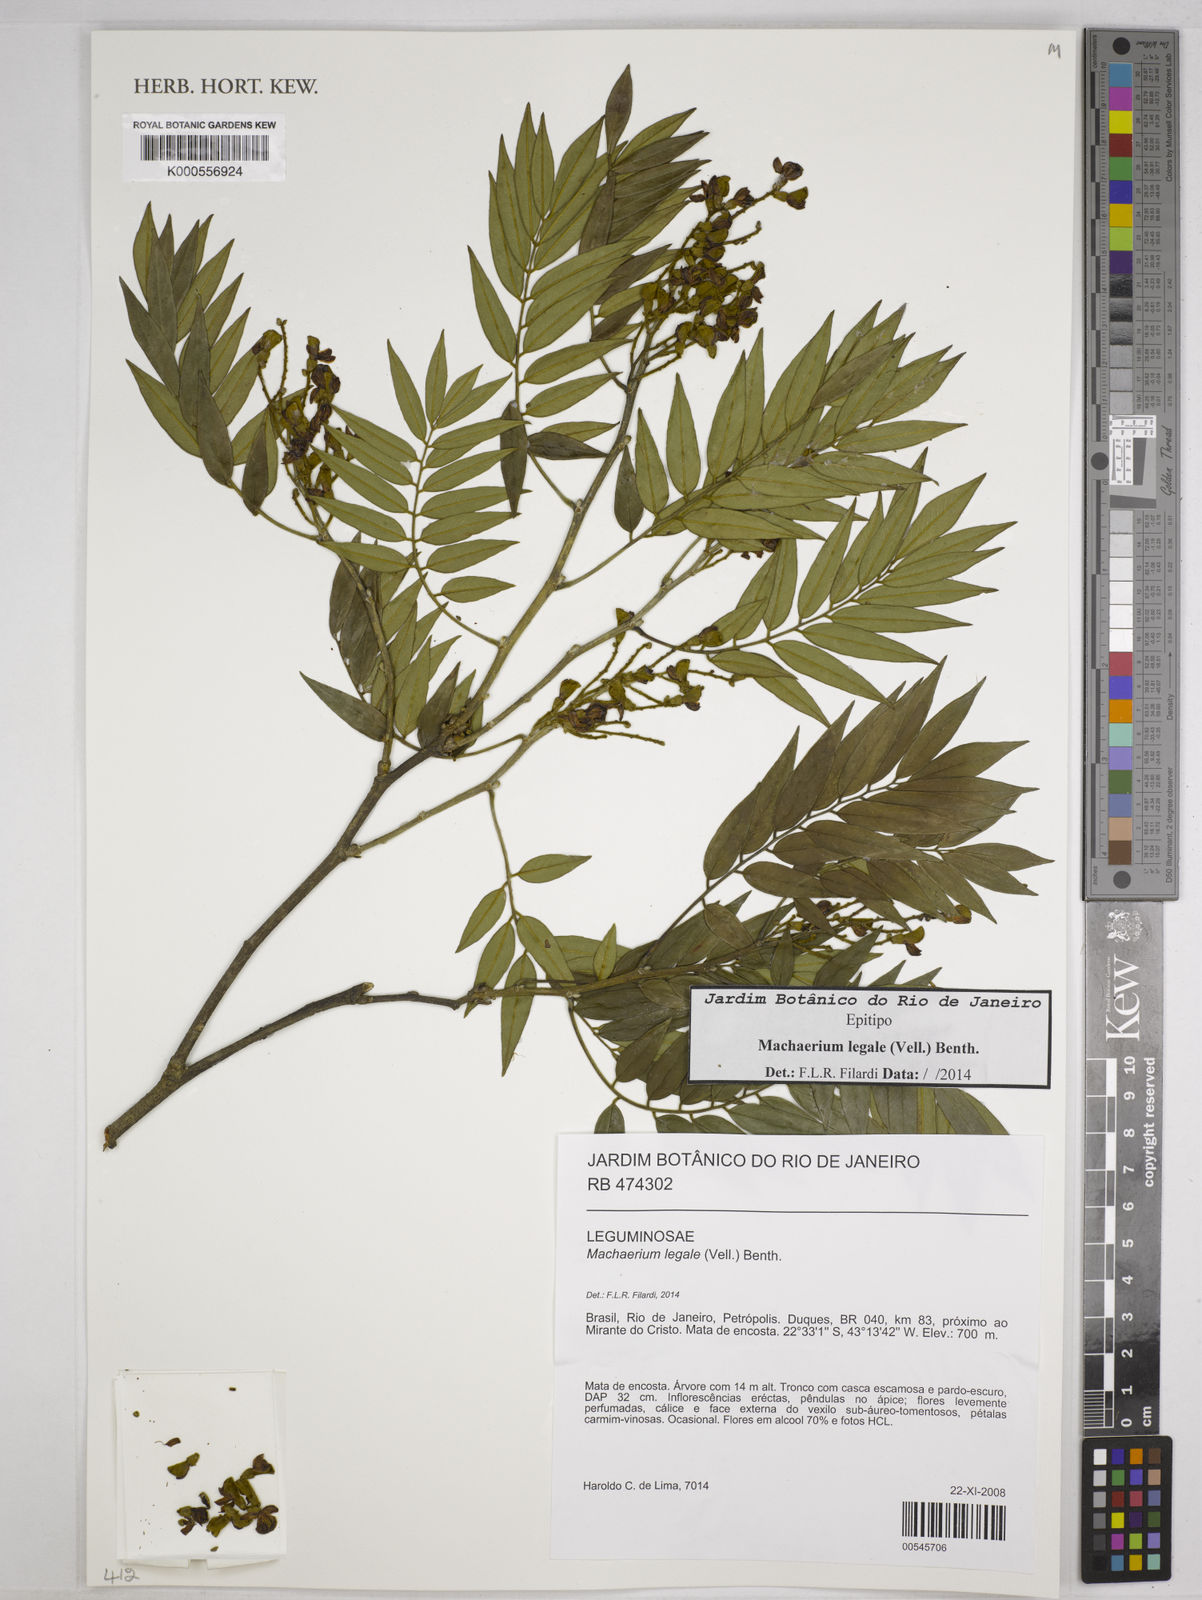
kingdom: Plantae
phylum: Tracheophyta
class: Magnoliopsida
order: Fabales
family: Fabaceae
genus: Machaerium
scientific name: Machaerium legale
